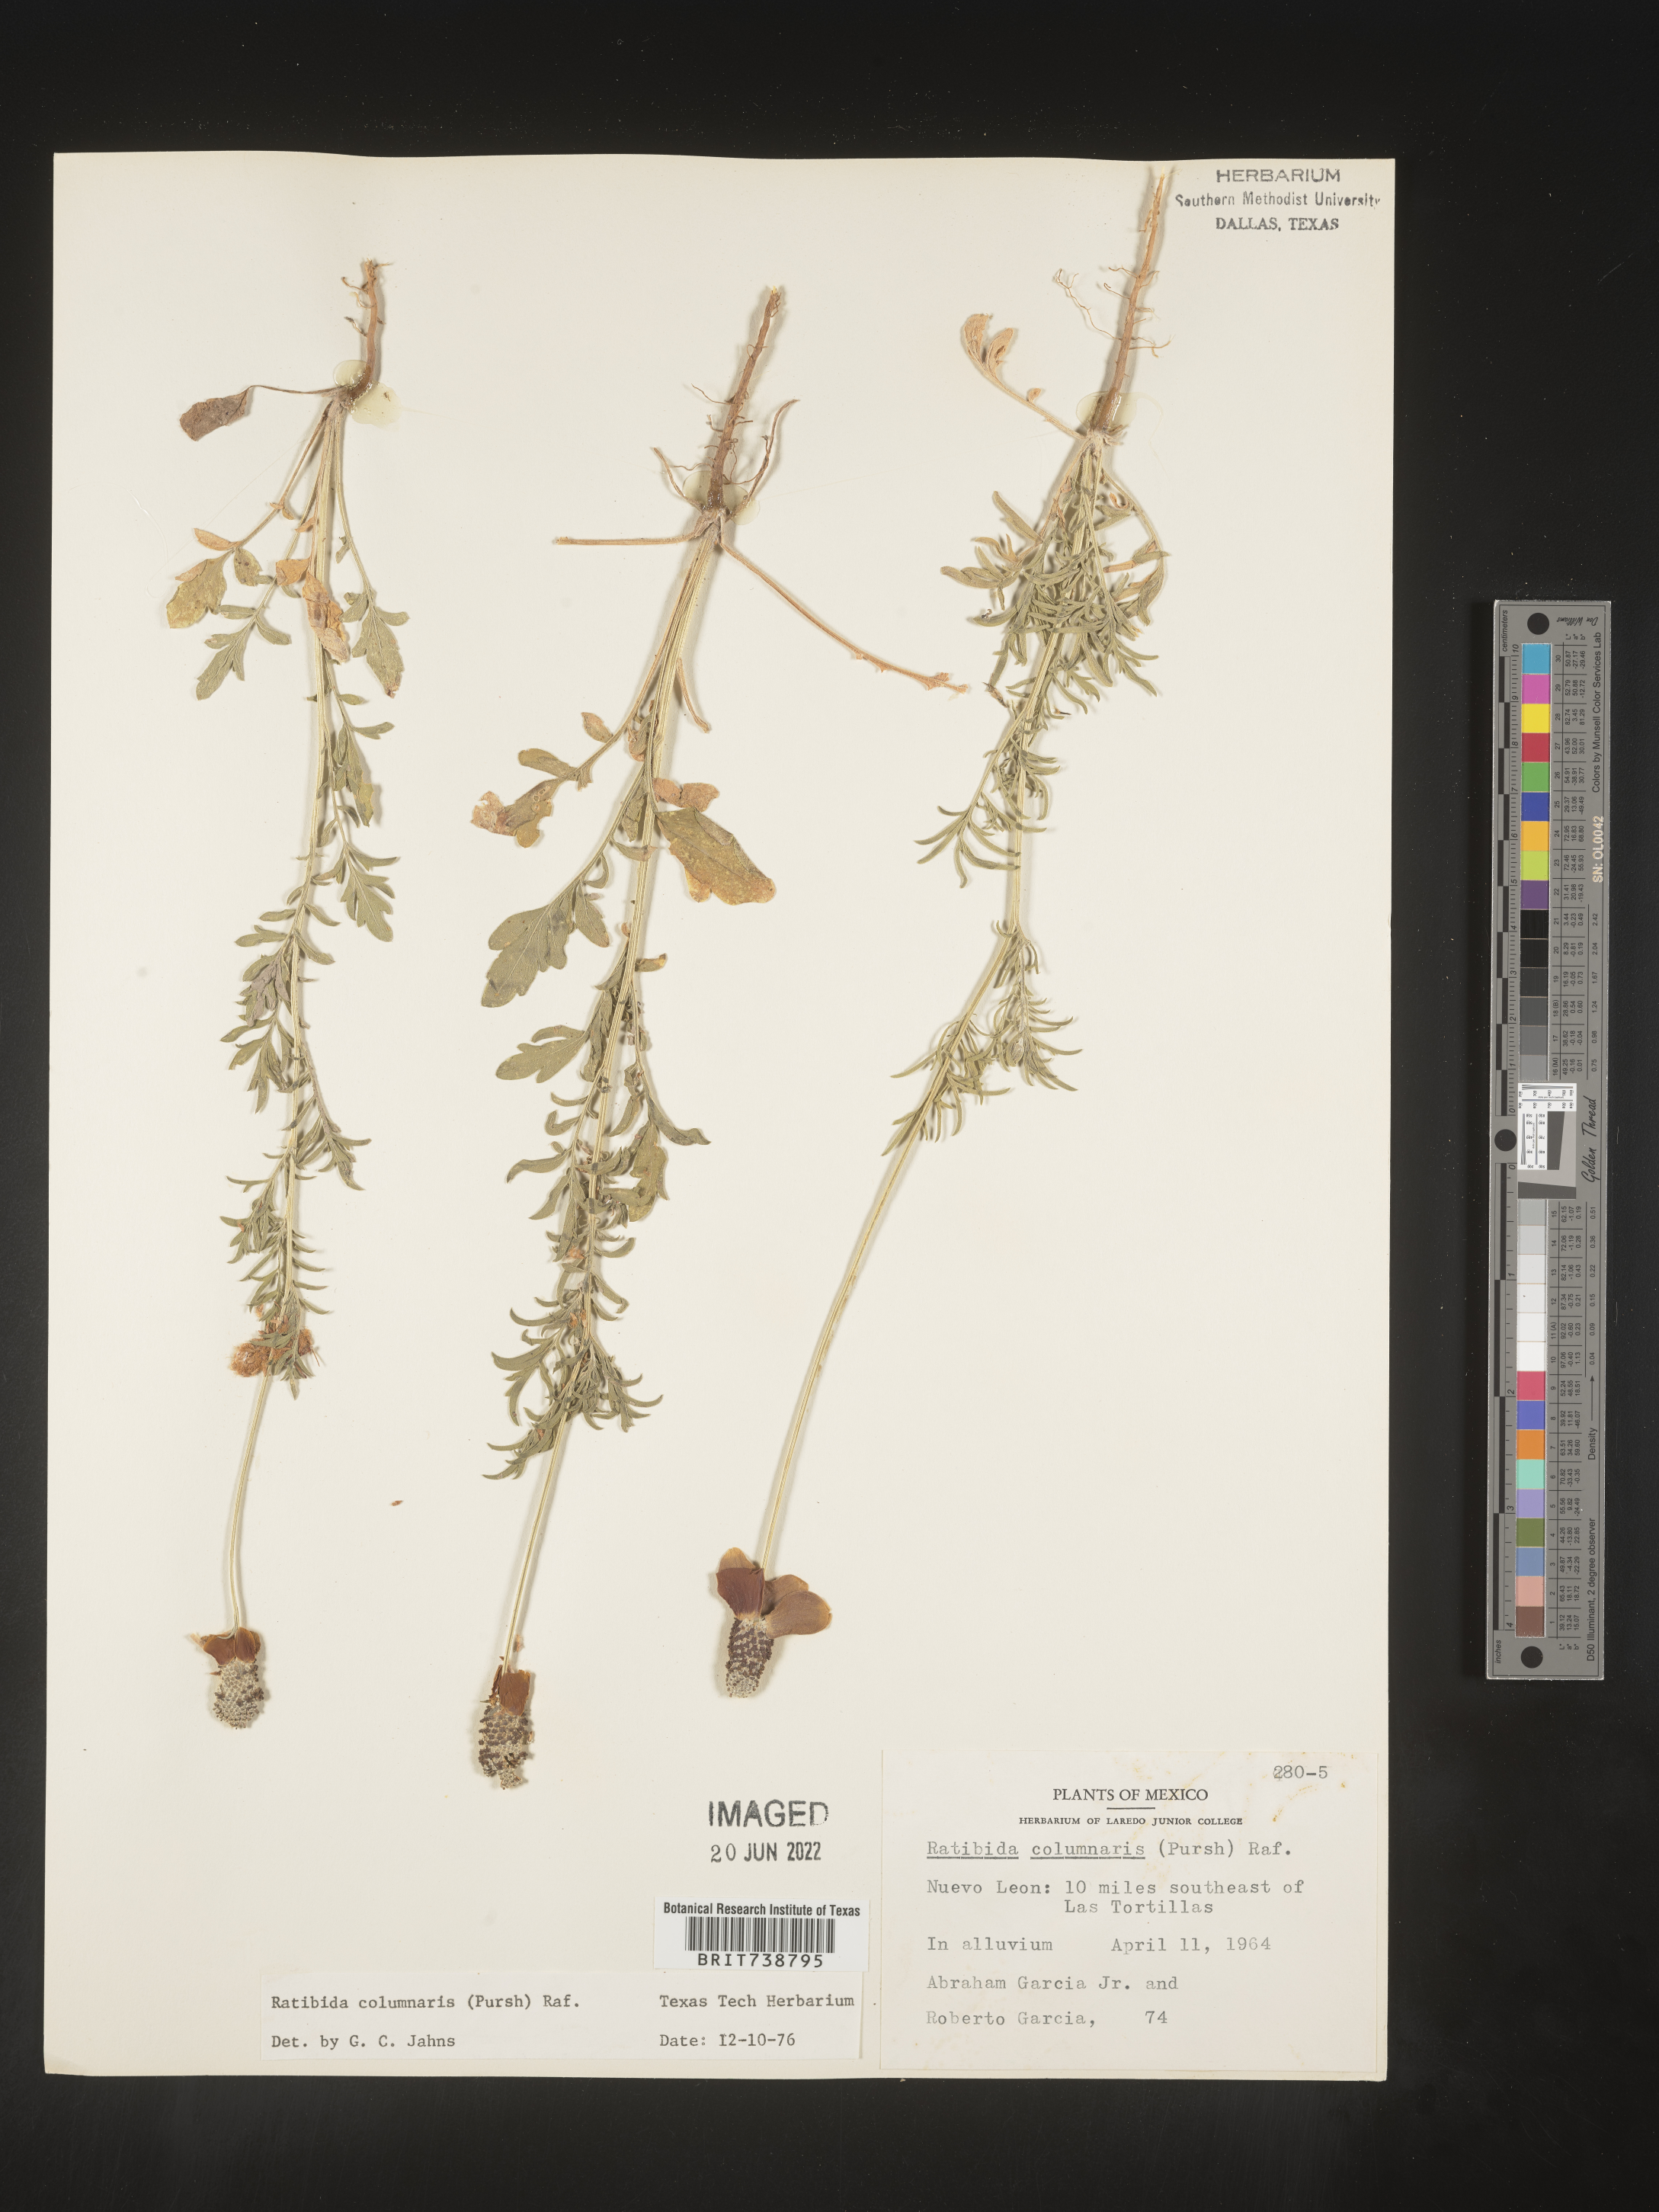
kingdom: Plantae
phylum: Tracheophyta
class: Magnoliopsida
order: Asterales
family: Asteraceae
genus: Ratibida
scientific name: Ratibida
